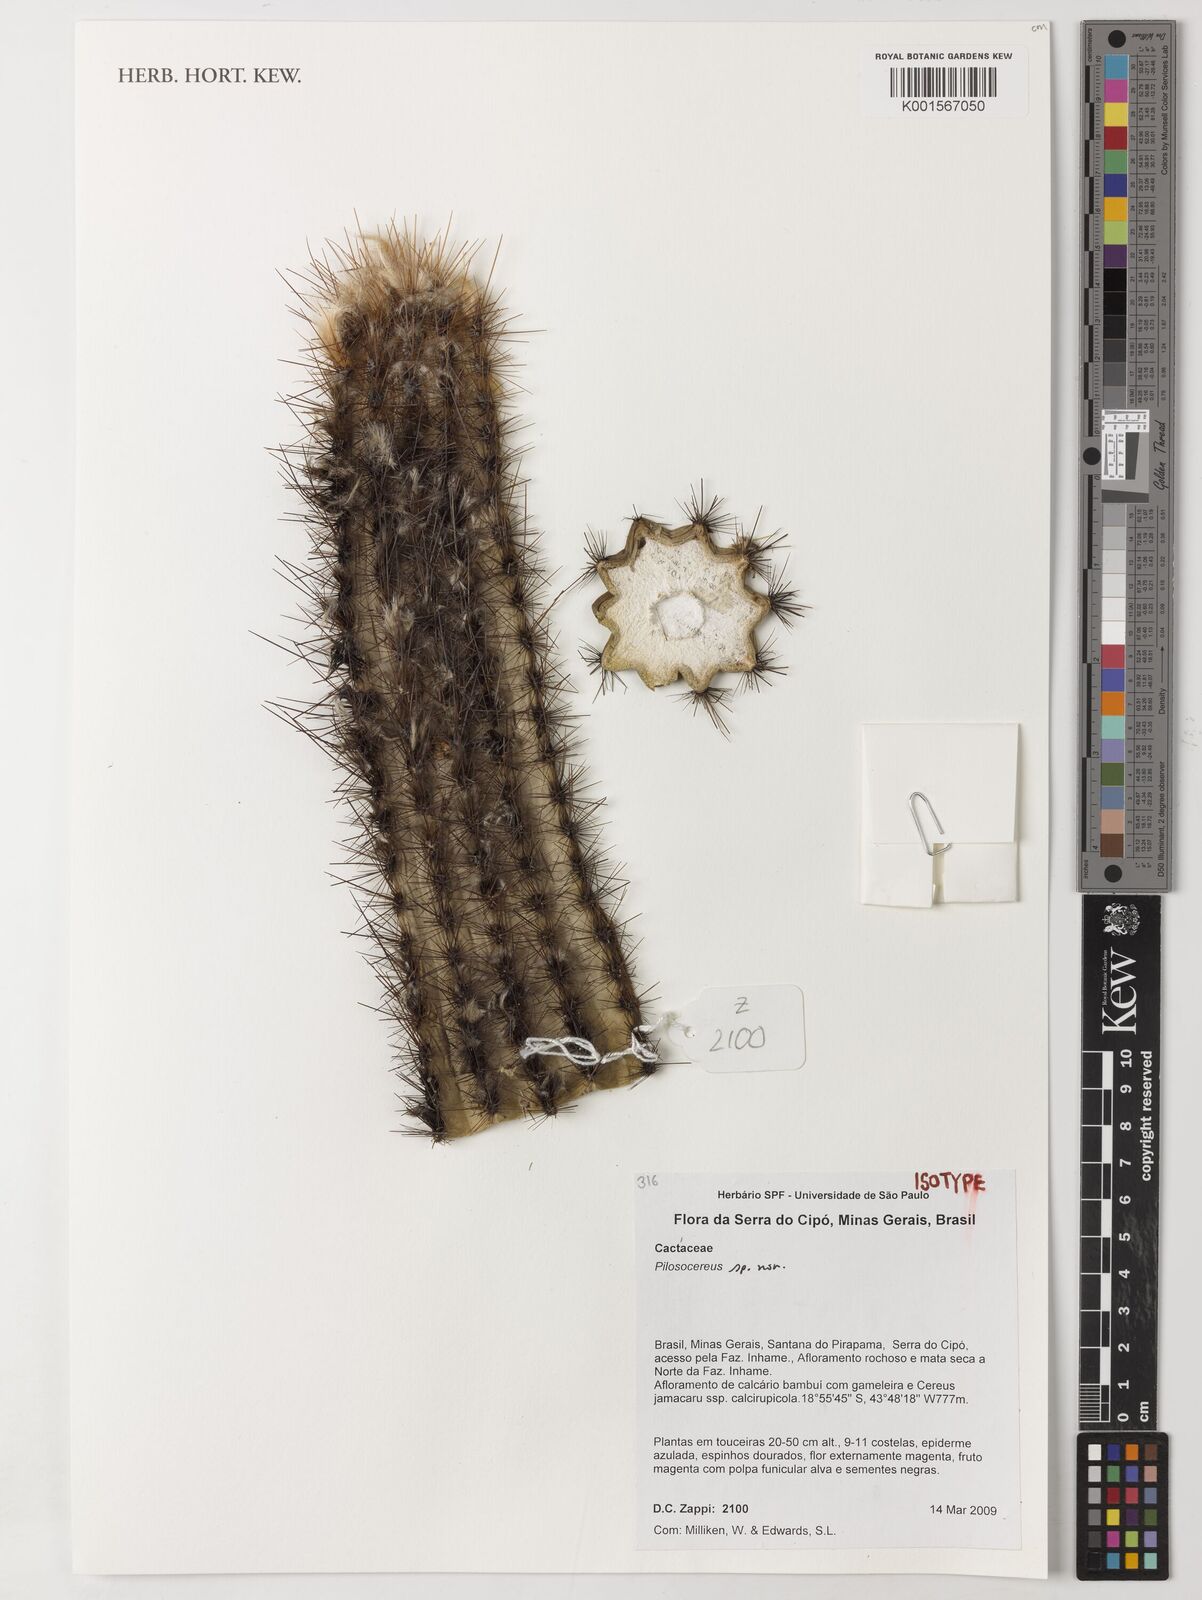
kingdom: Plantae
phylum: Tracheophyta
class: Magnoliopsida
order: Caryophyllales
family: Cactaceae
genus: Xiquexique
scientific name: Xiquexique frewenii
